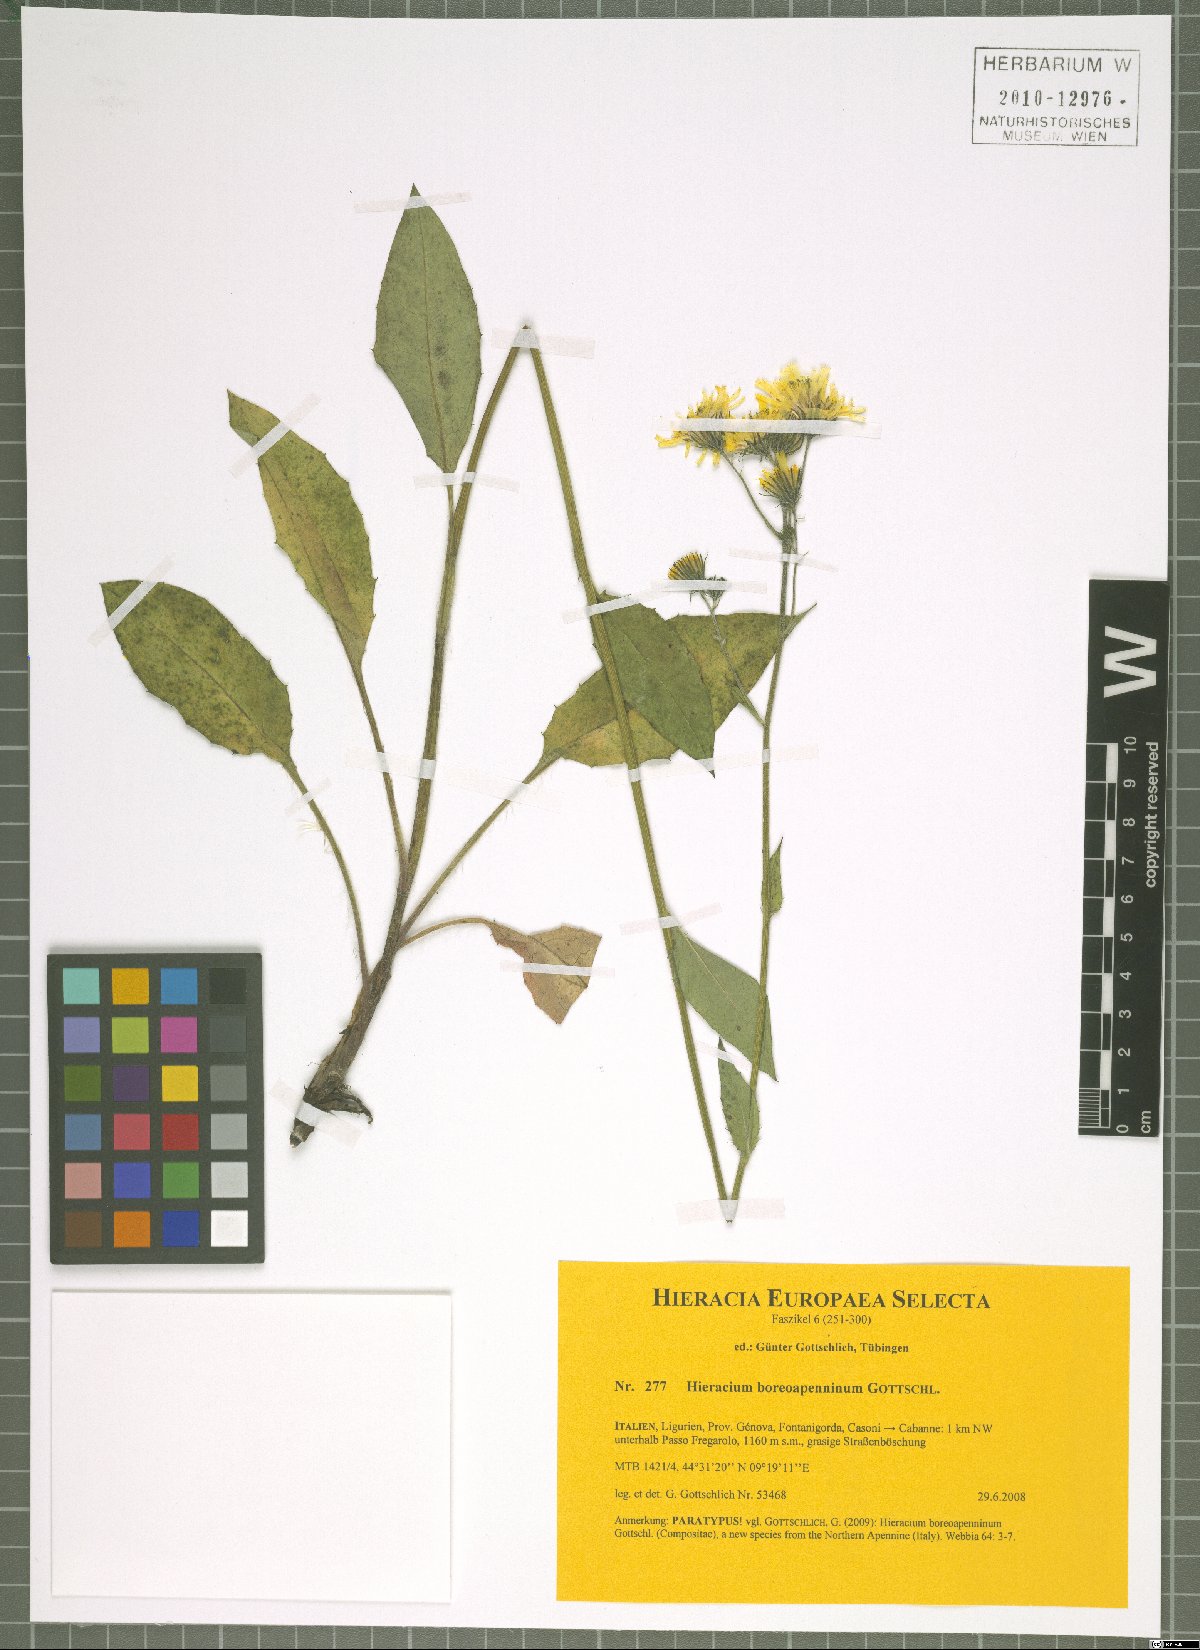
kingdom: Plantae
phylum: Tracheophyta
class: Magnoliopsida
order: Asterales
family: Asteraceae
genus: Hieracium
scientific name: Hieracium boreoapenninum
